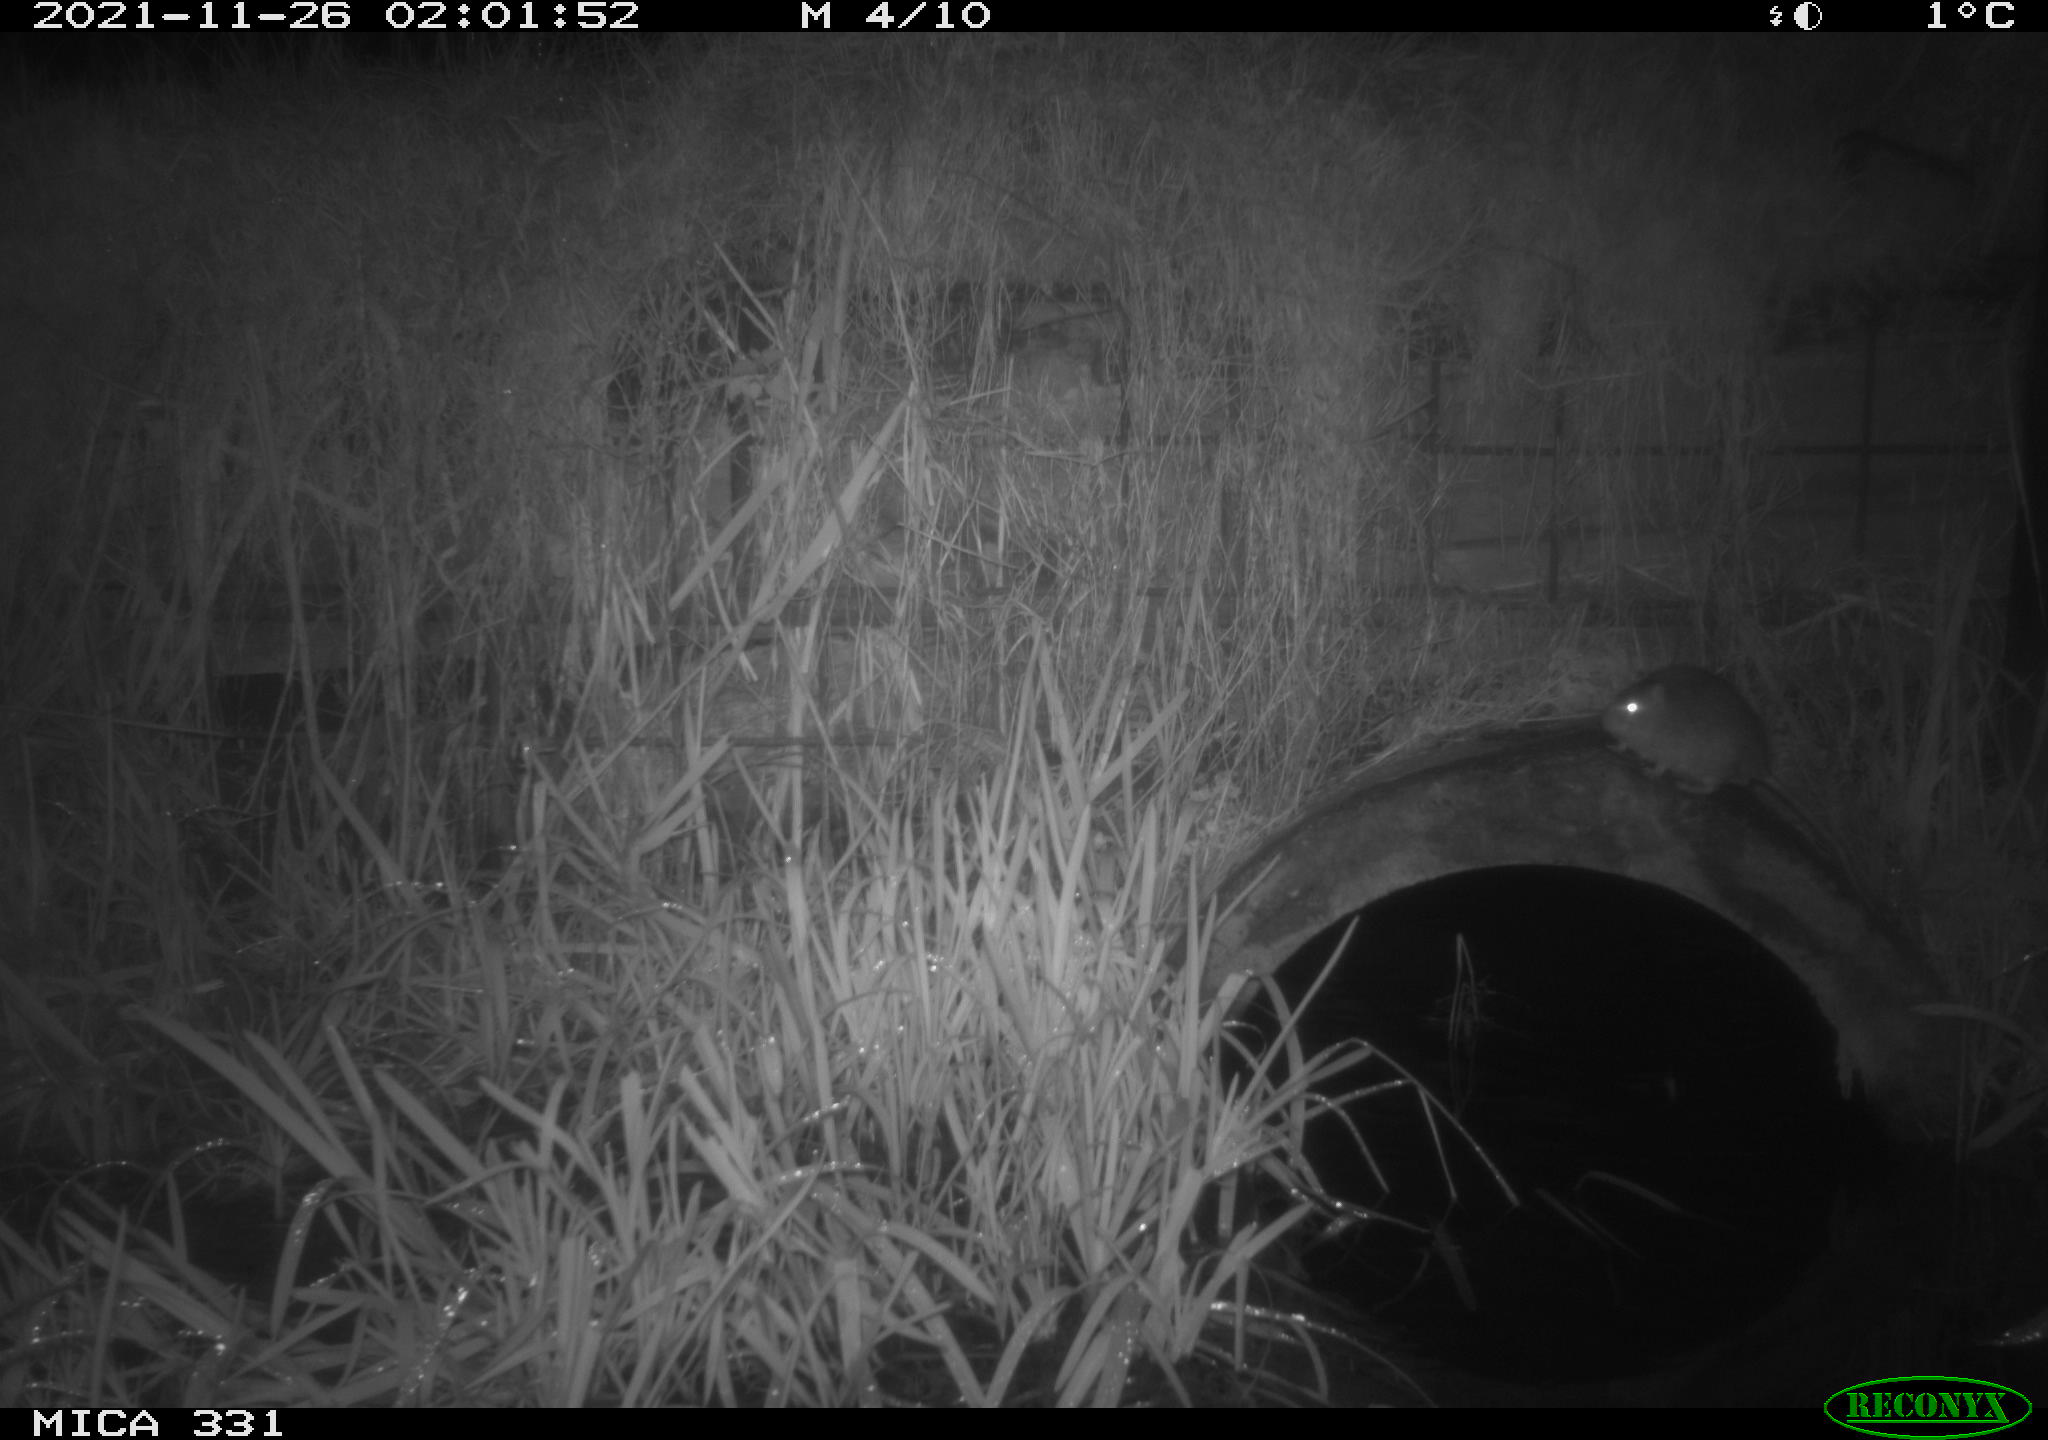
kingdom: Animalia
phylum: Chordata
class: Mammalia
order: Rodentia
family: Muridae
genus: Rattus
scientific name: Rattus norvegicus
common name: Brown rat
